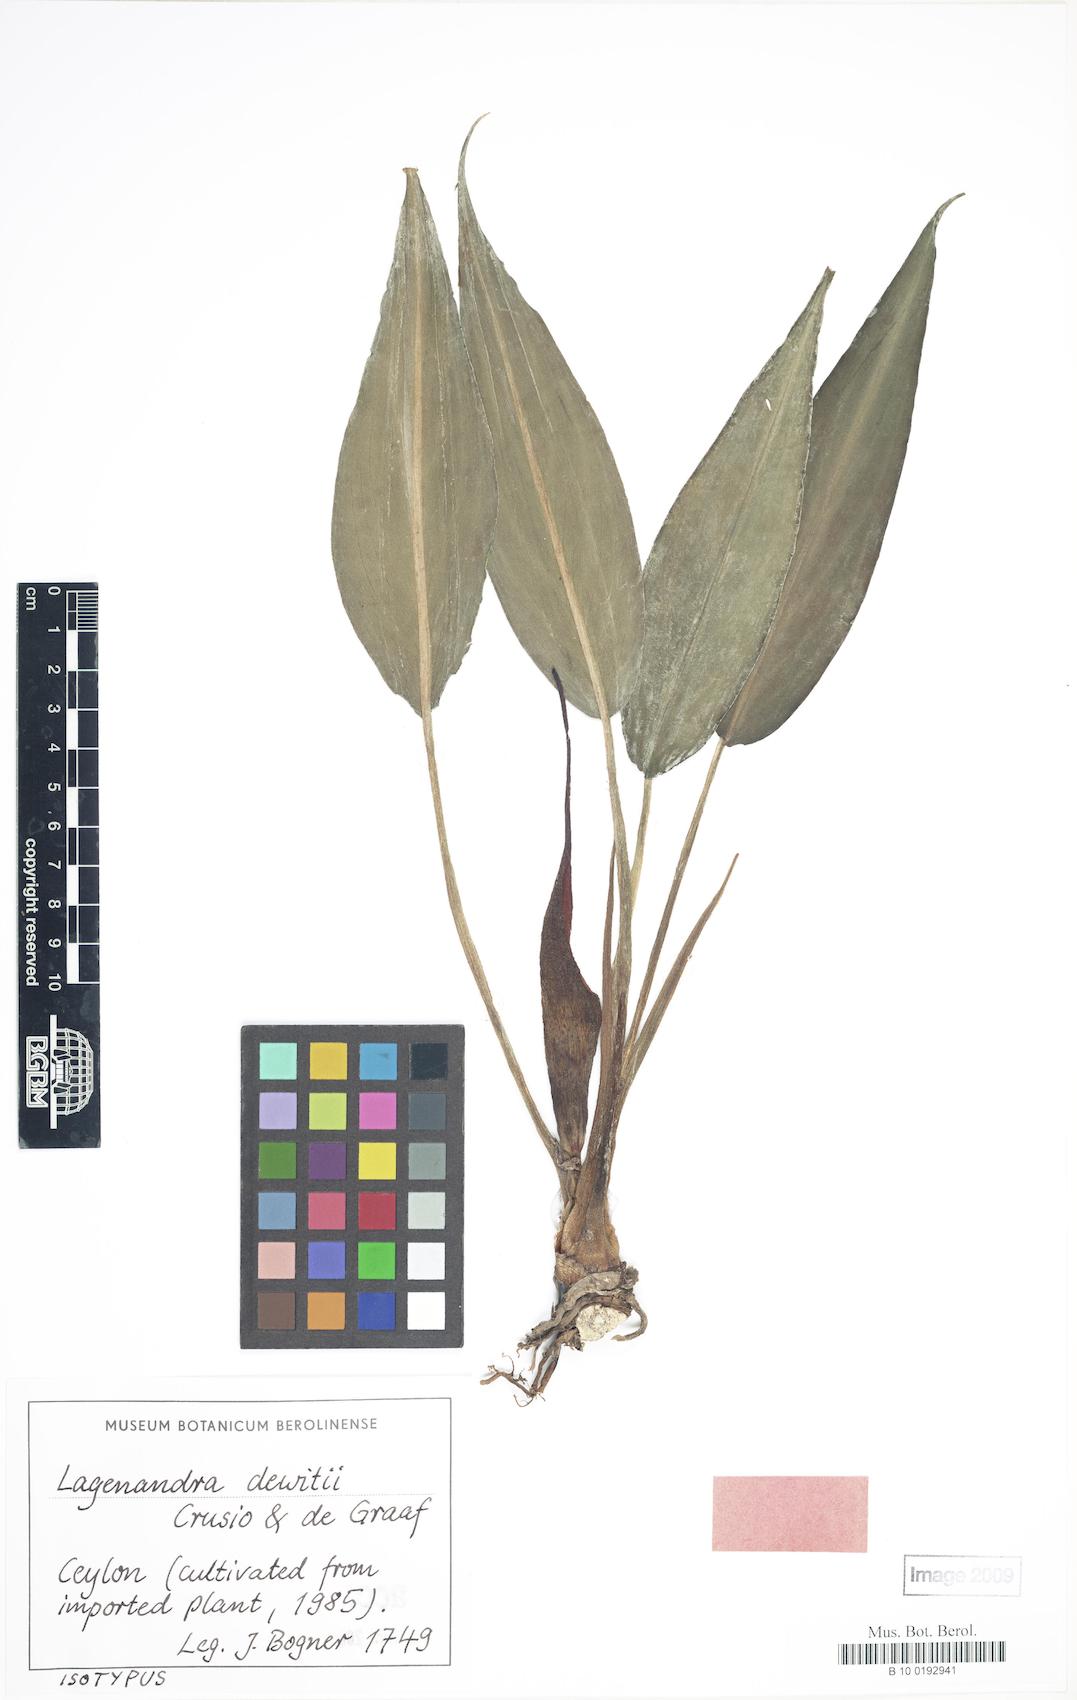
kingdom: Plantae
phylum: Tracheophyta
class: Liliopsida
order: Alismatales
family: Araceae
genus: Lagenandra
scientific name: Lagenandra dewitii
